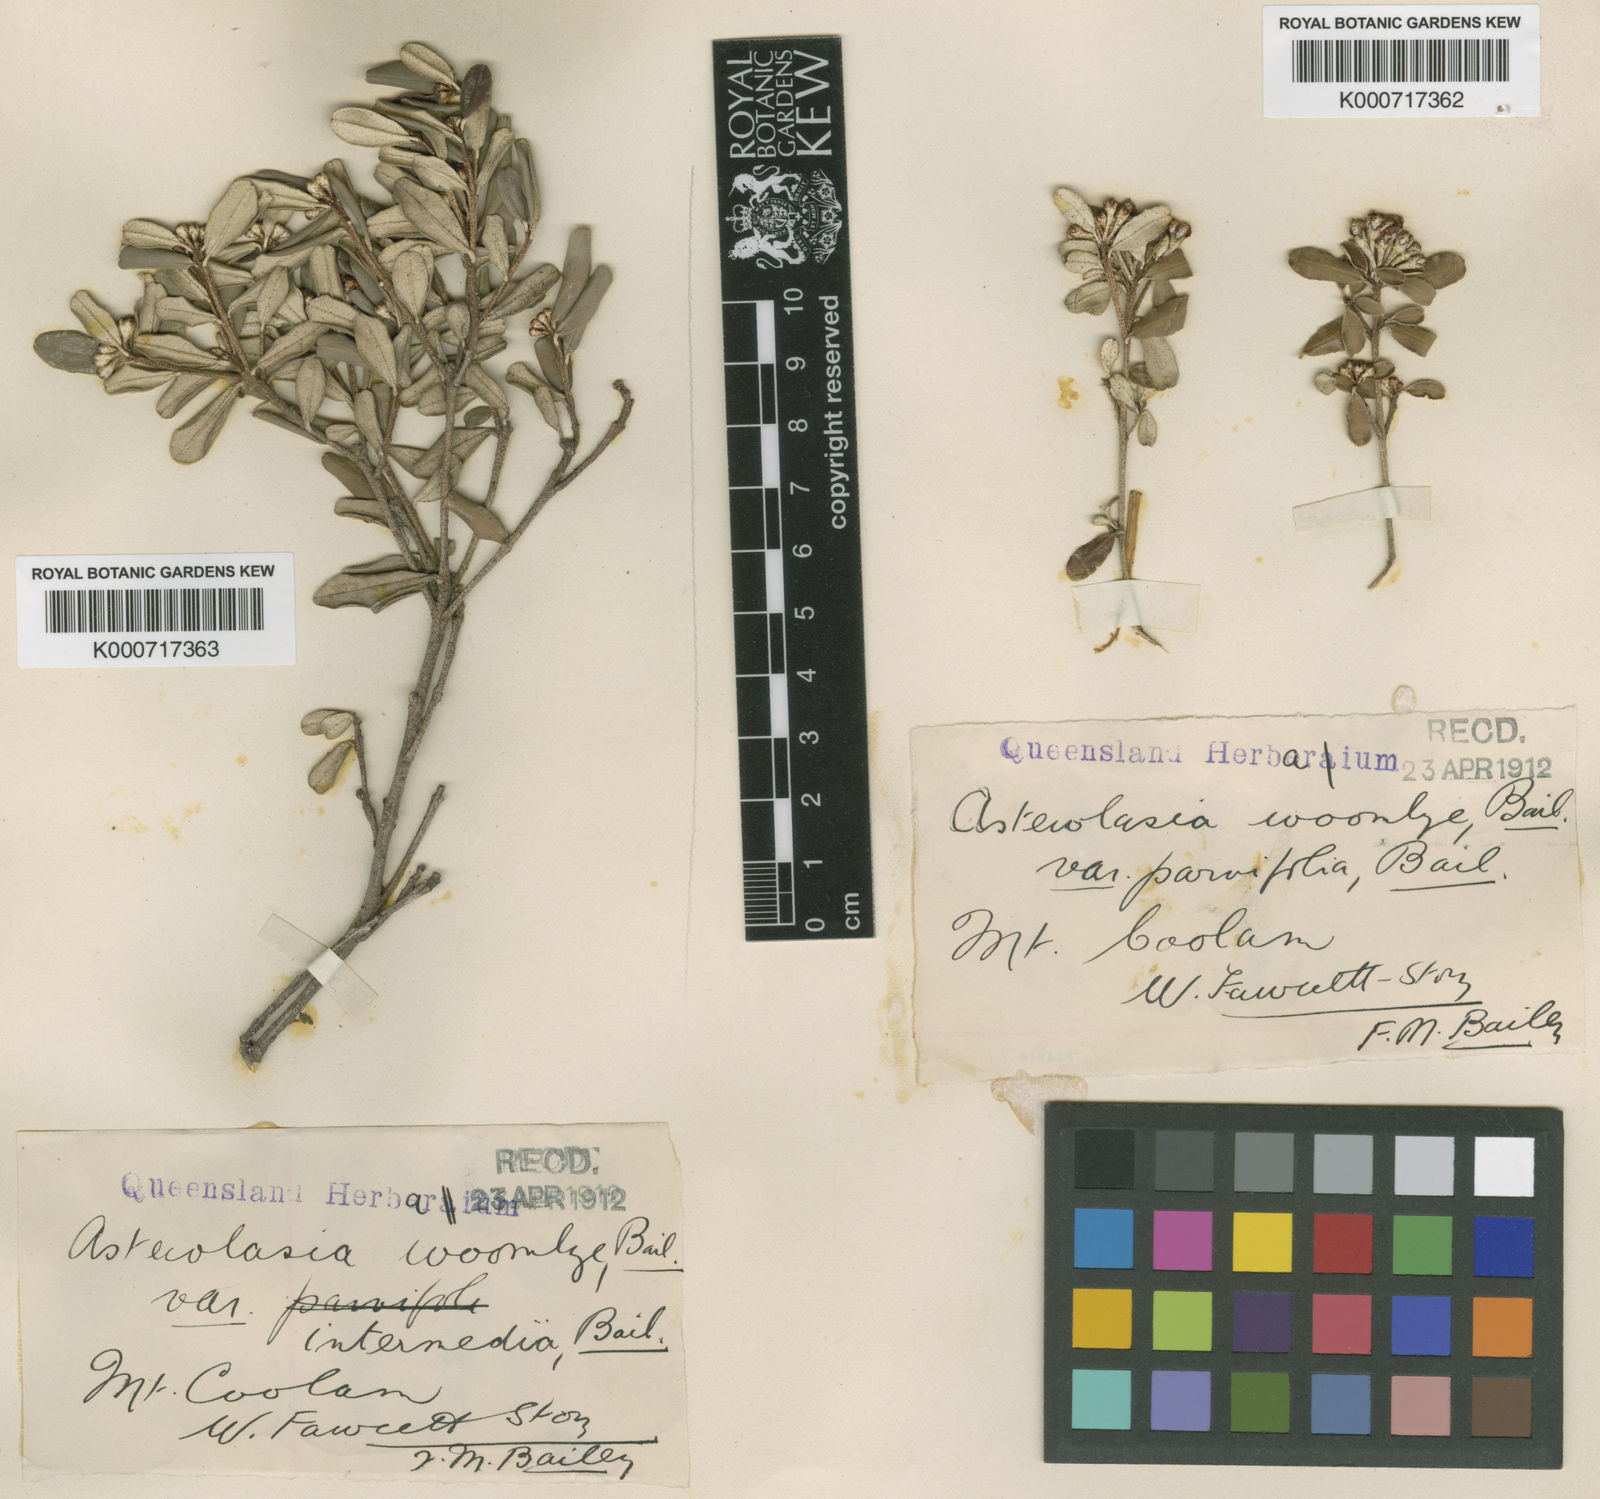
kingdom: Plantae
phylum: Tracheophyta
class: Magnoliopsida
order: Sapindales
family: Rutaceae
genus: Phebalium
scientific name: Phebalium woombye
